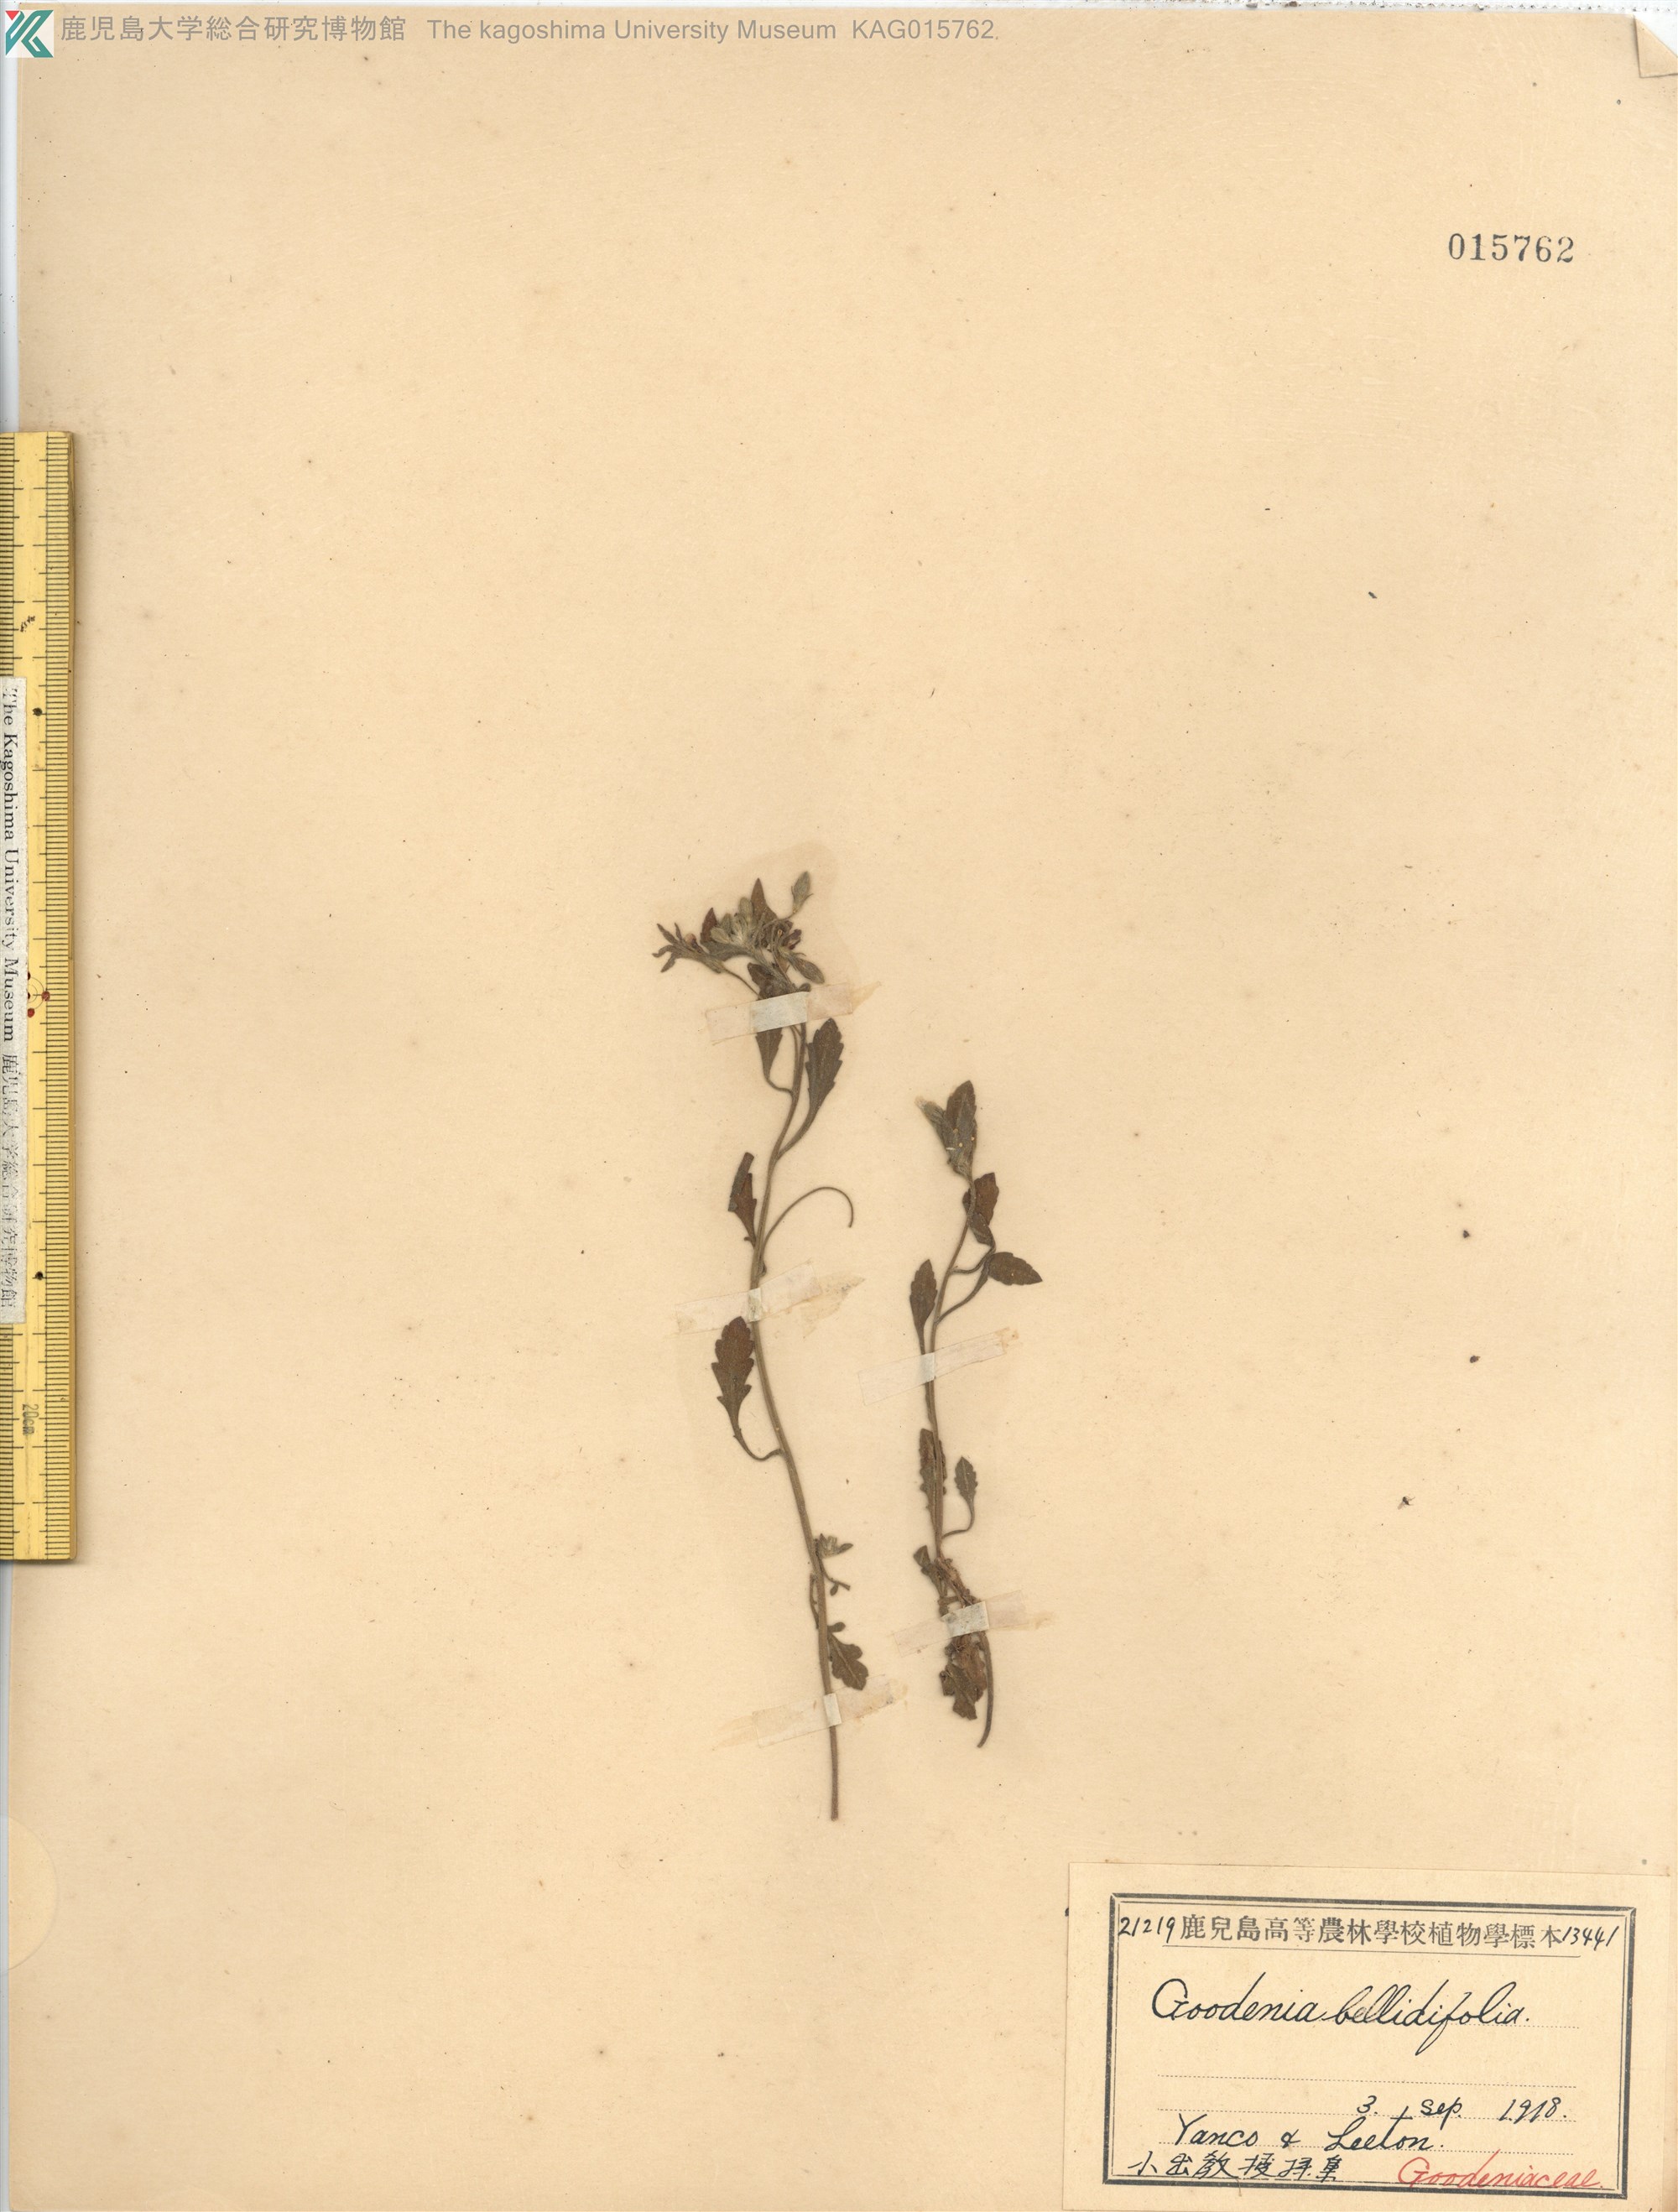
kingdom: Plantae
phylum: Tracheophyta
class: Magnoliopsida
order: Asterales
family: Goodeniaceae
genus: Goodenia
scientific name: Goodenia bellidifolia
